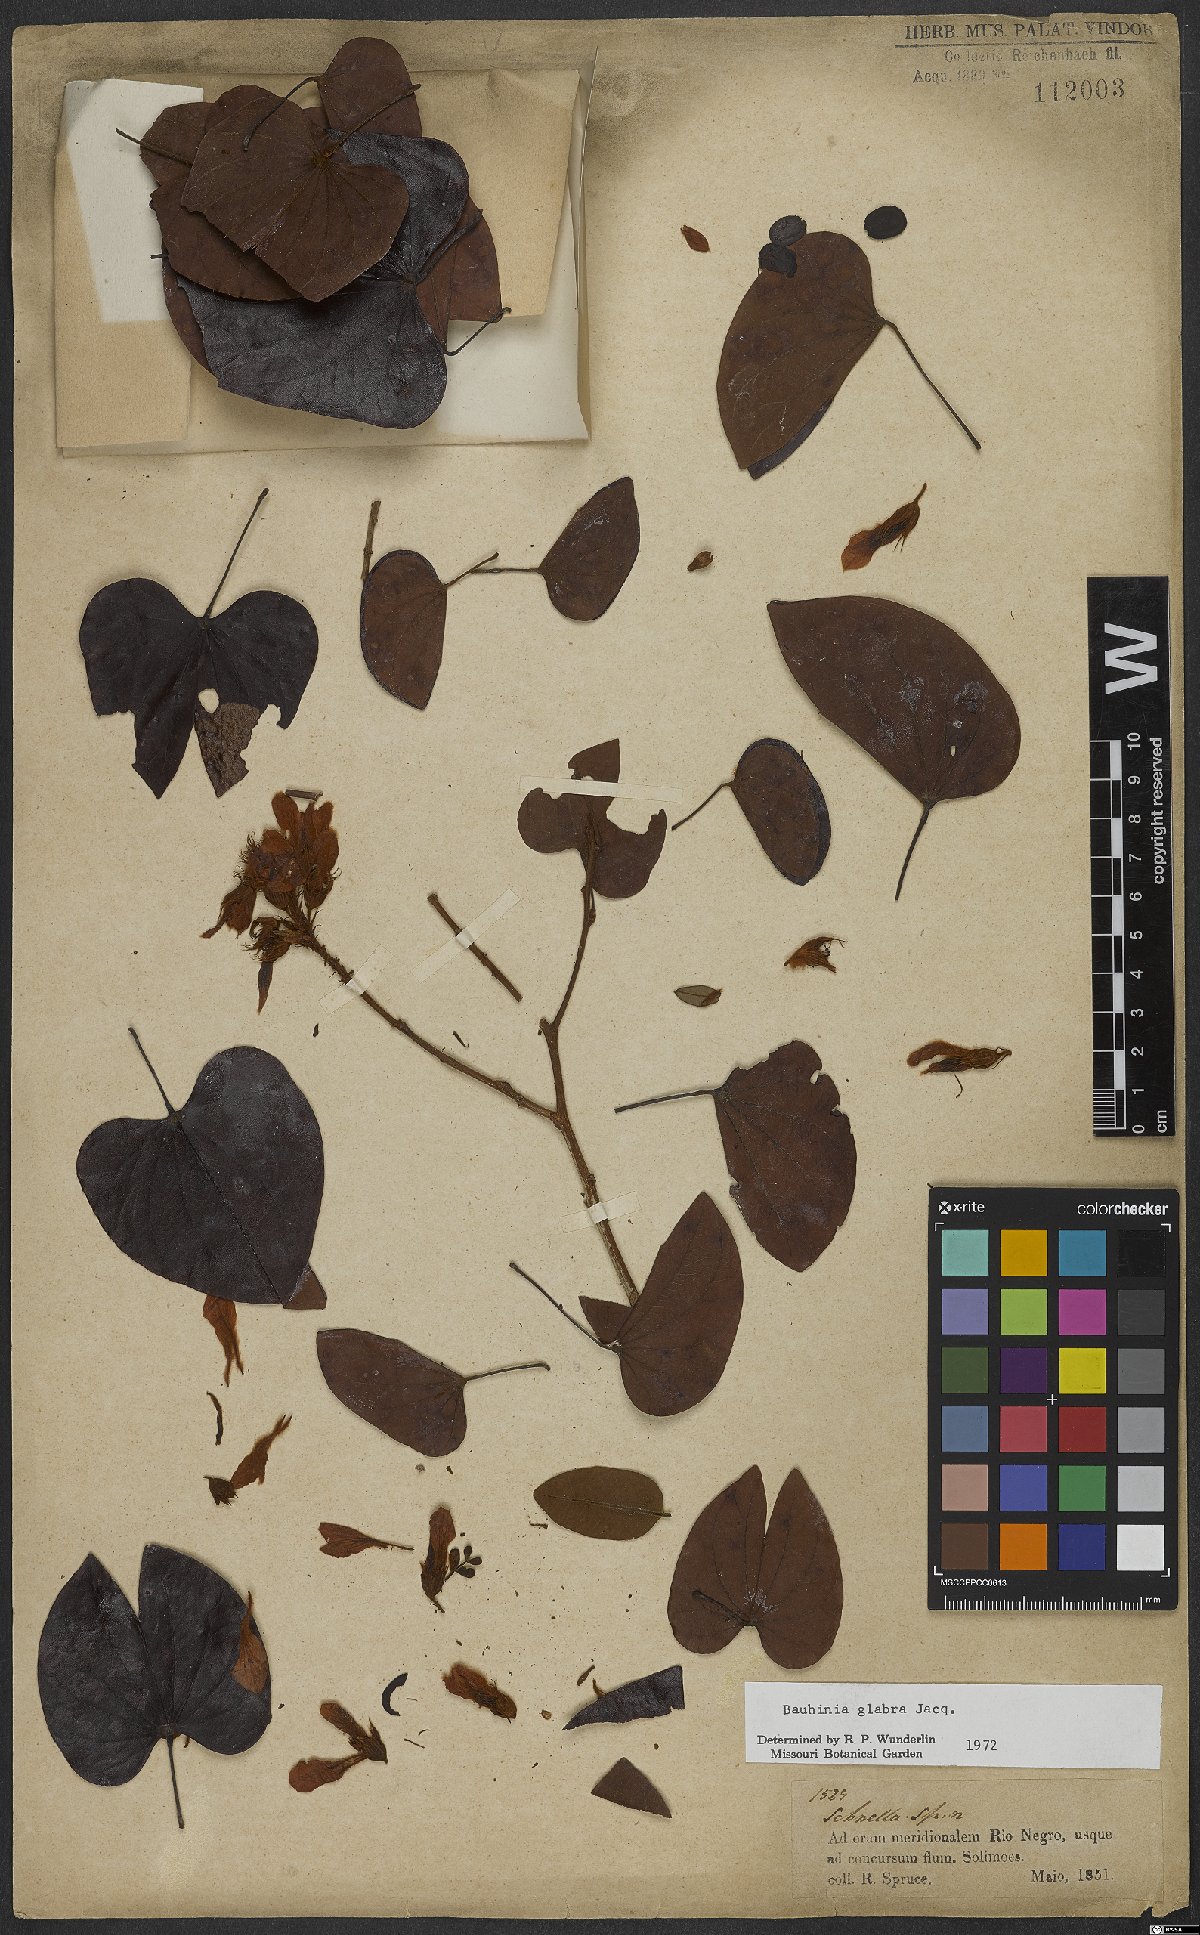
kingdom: Plantae
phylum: Tracheophyta
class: Magnoliopsida
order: Fabales
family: Fabaceae
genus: Schnella
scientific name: Schnella glabra
